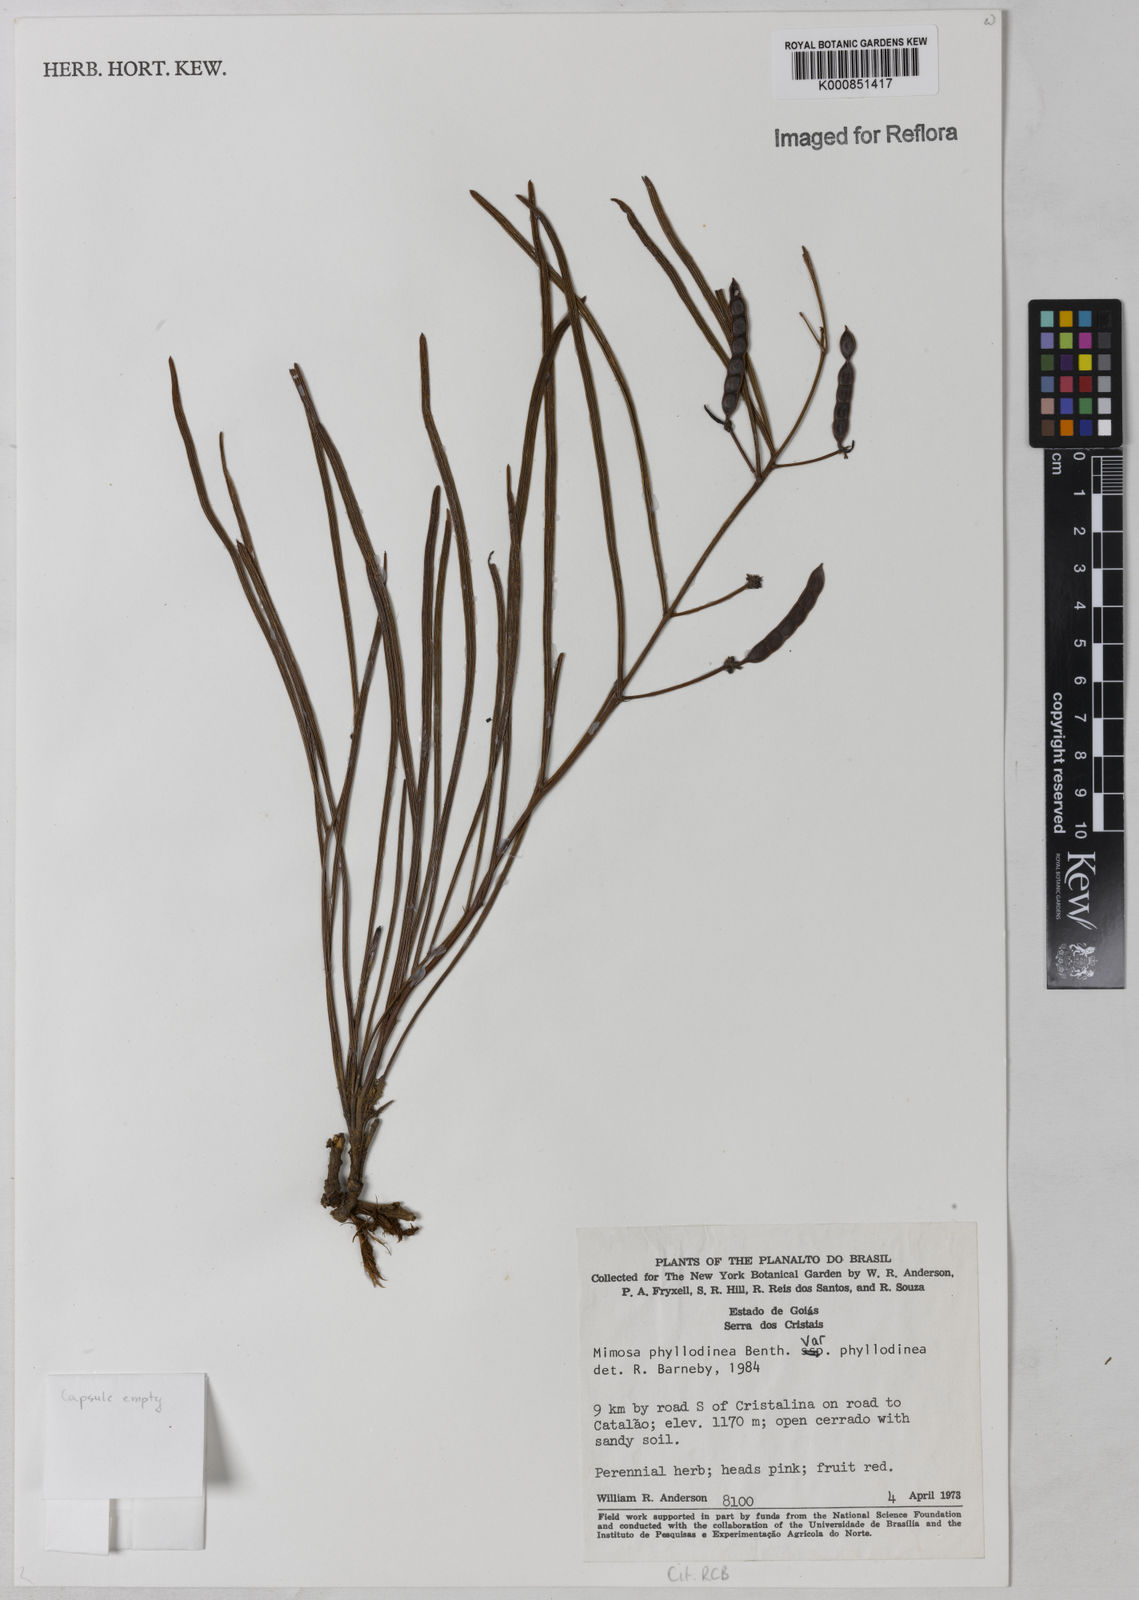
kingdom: Plantae
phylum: Tracheophyta
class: Magnoliopsida
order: Fabales
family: Fabaceae
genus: Mimosa
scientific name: Mimosa phyllodinea
